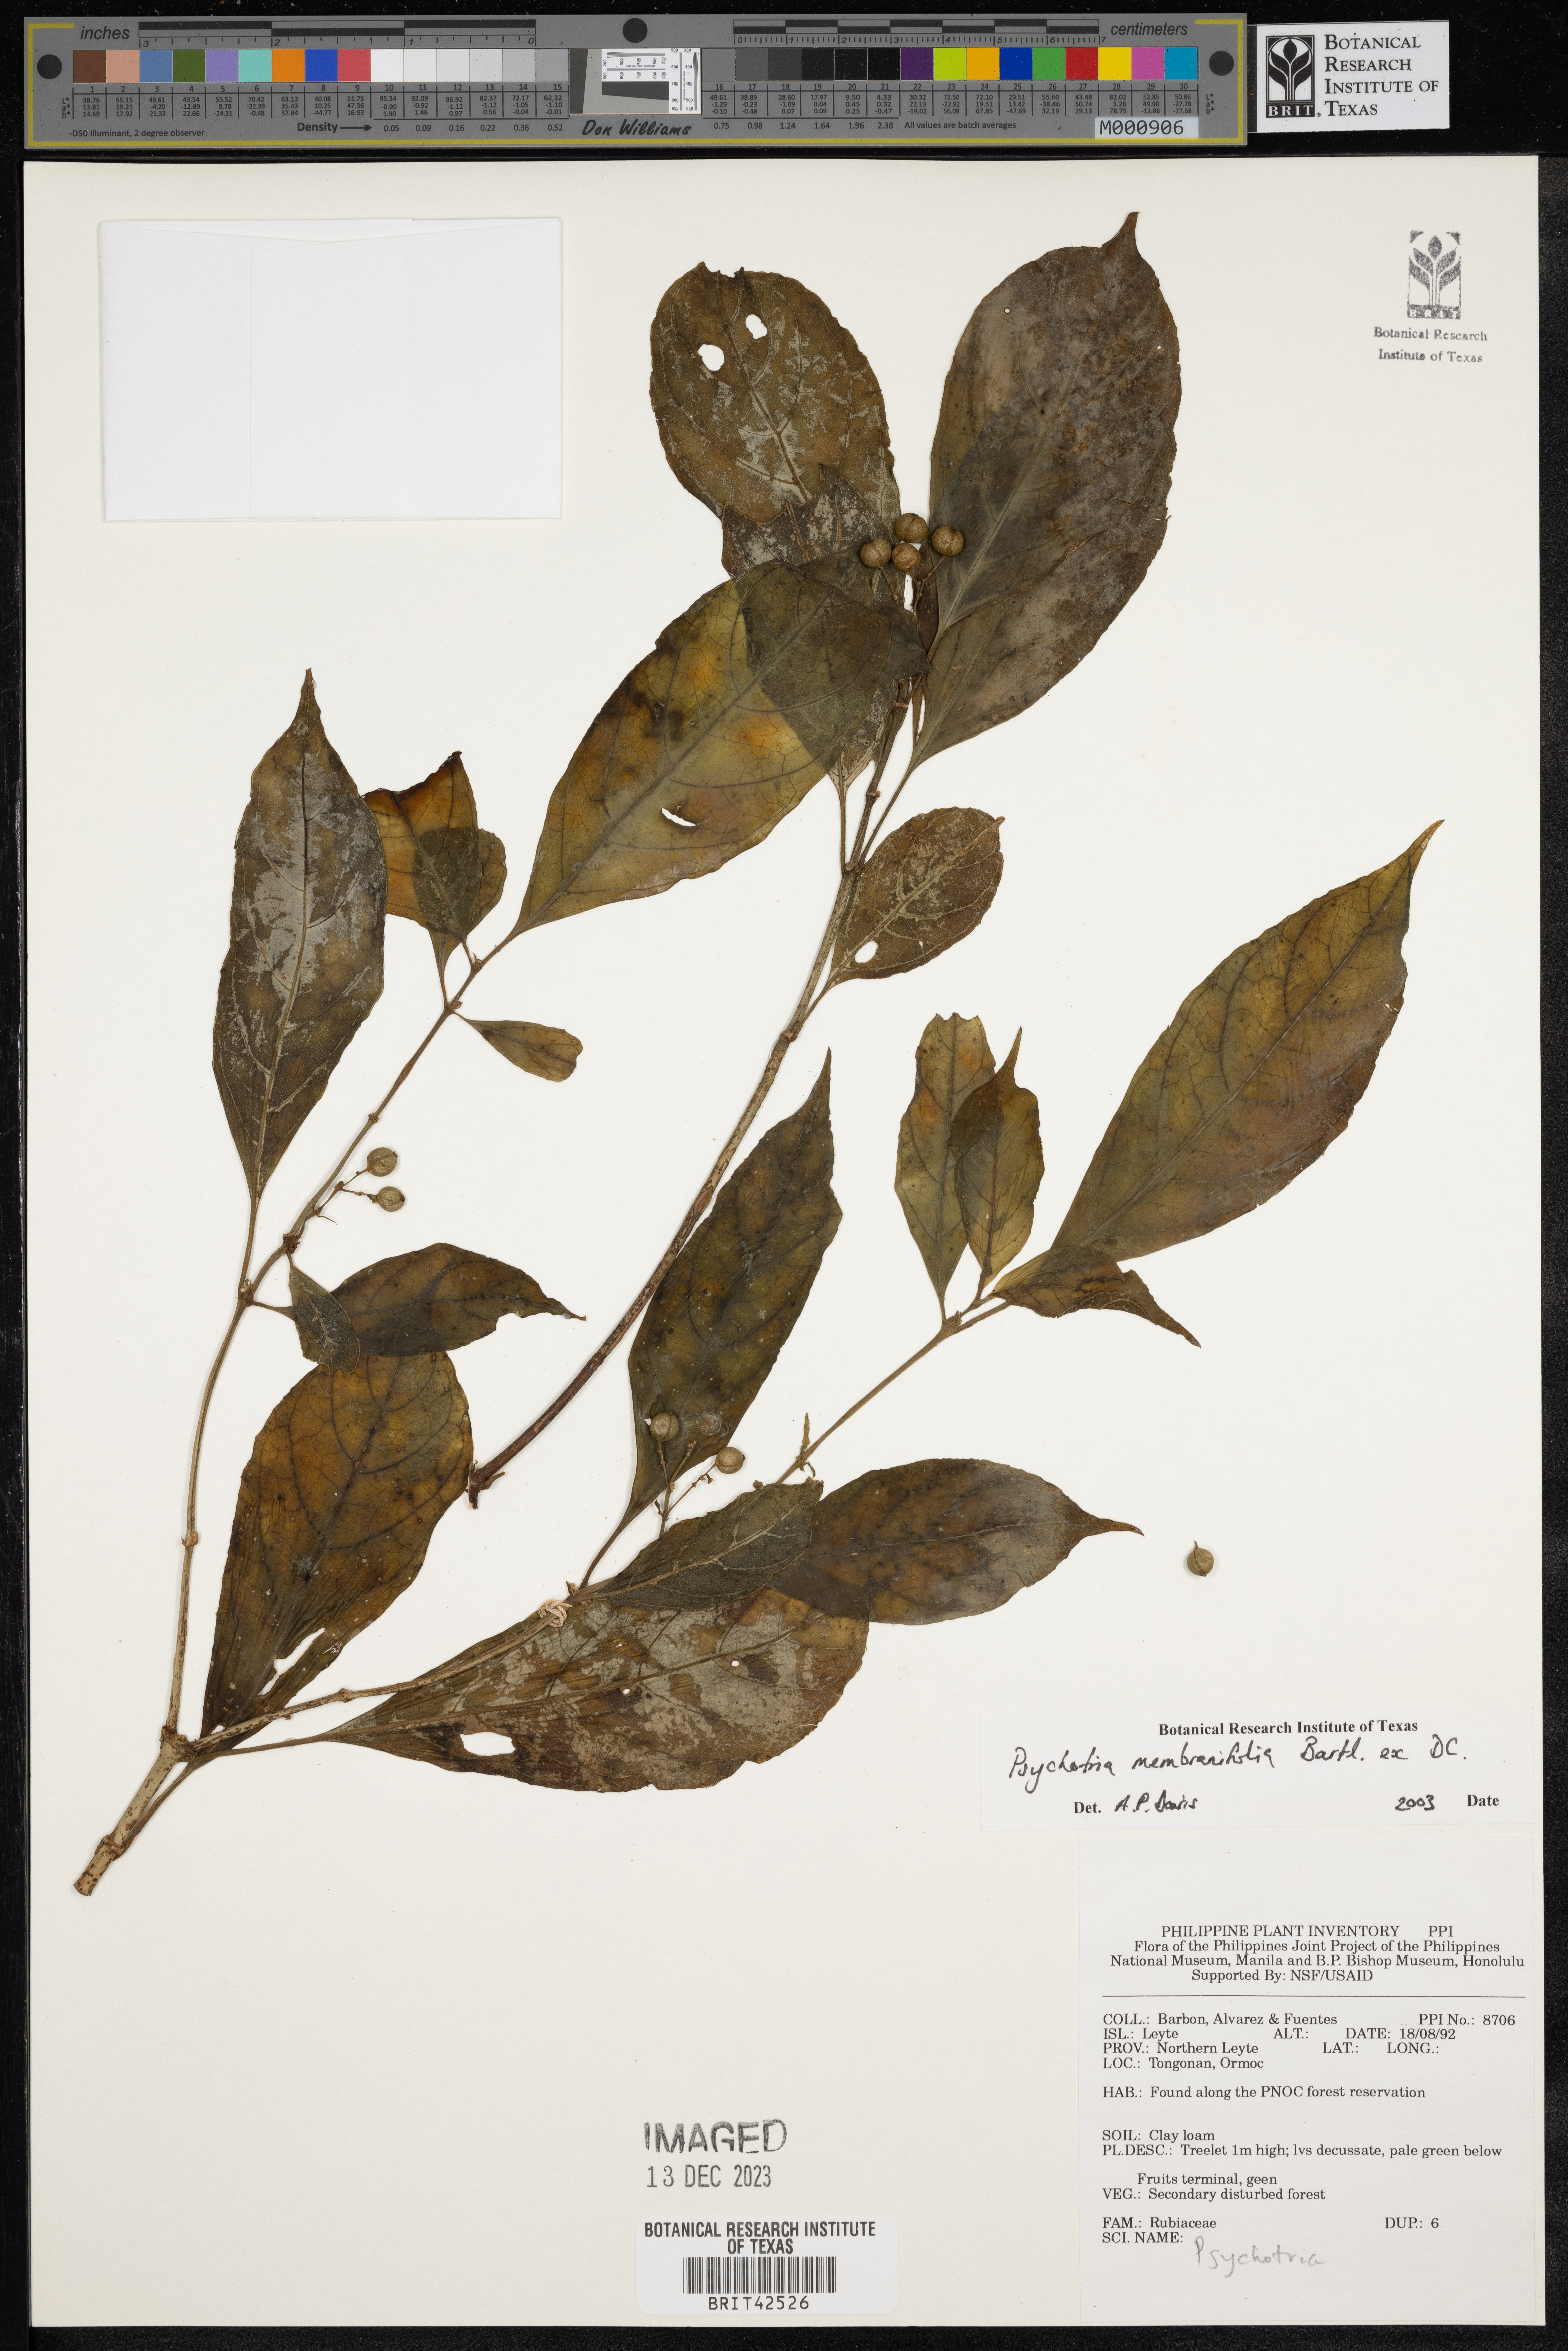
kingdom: Plantae
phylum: Tracheophyta
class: Magnoliopsida
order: Gentianales
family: Rubiaceae
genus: Eumachia
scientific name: Eumachia membranifolia
